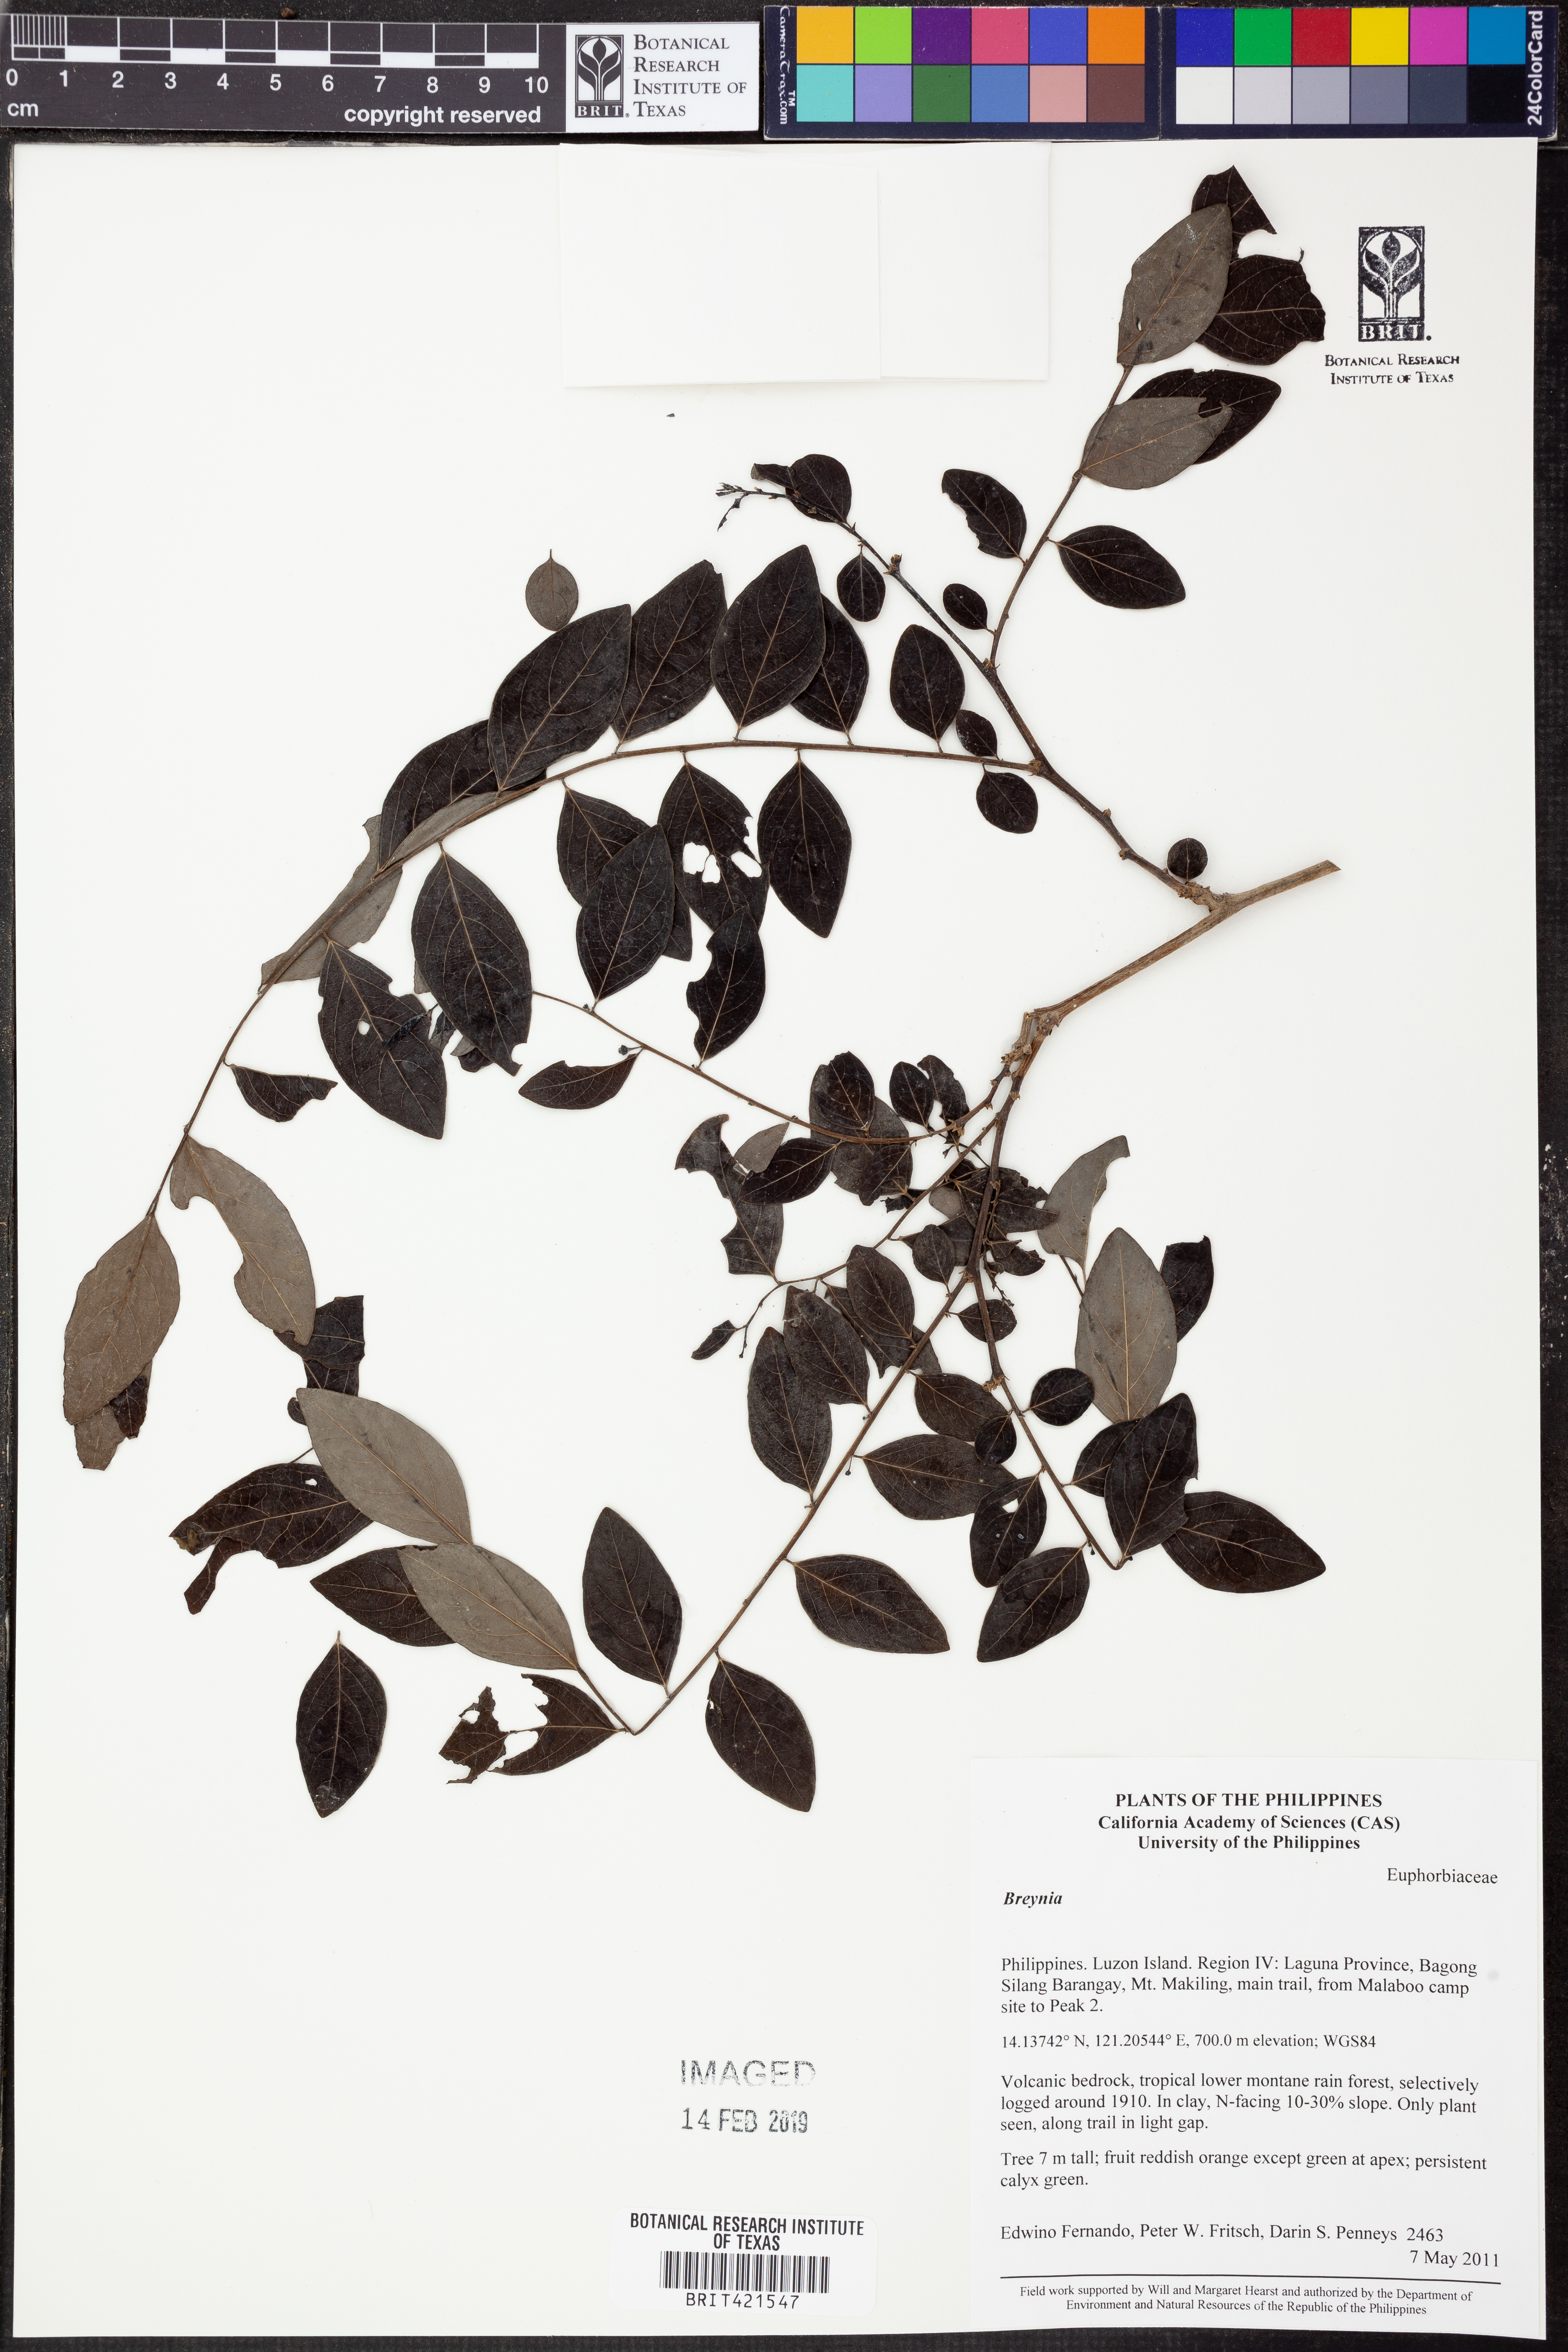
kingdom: Plantae
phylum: Tracheophyta
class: Magnoliopsida
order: Malpighiales
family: Phyllanthaceae
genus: Breynia
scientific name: Breynia
